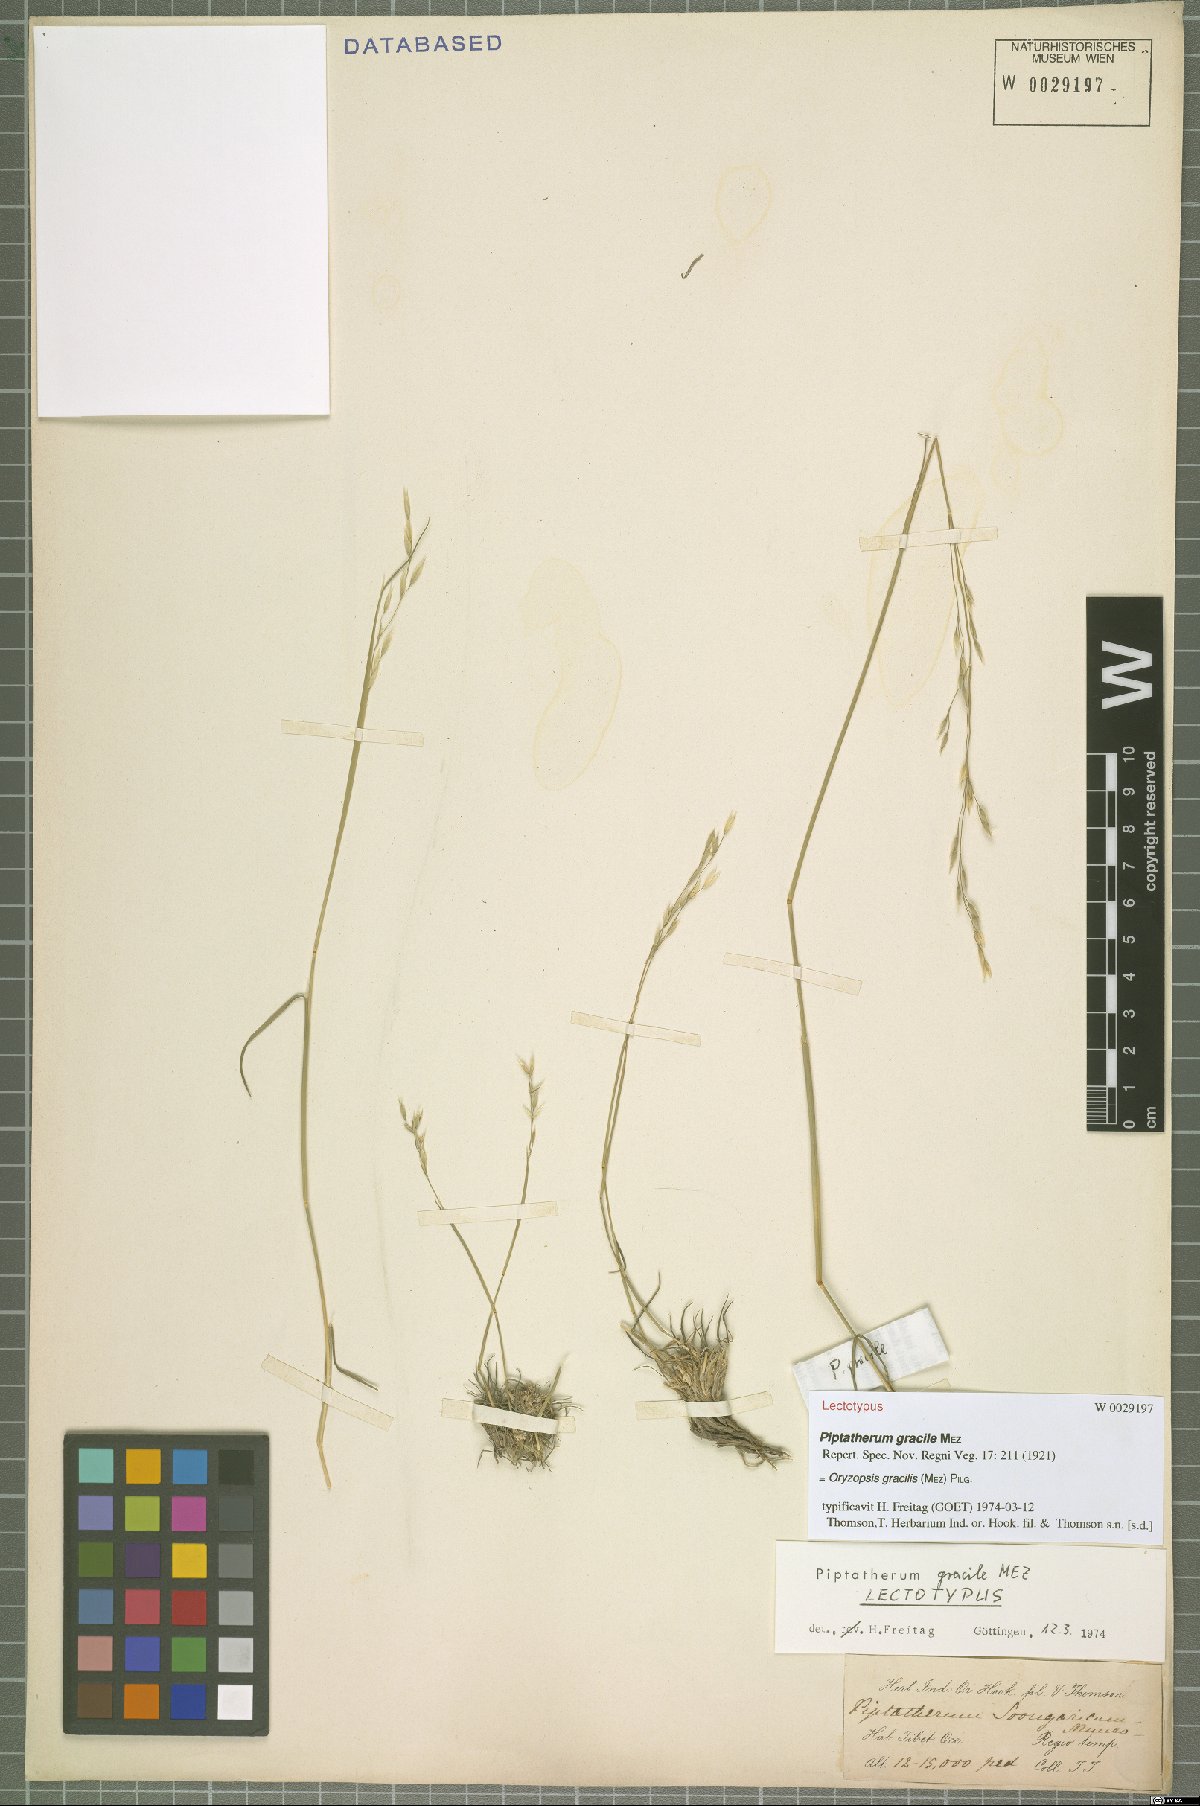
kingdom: Plantae
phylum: Tracheophyta
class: Liliopsida
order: Poales
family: Poaceae
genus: Piptatherum
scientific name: Piptatherum gracile
